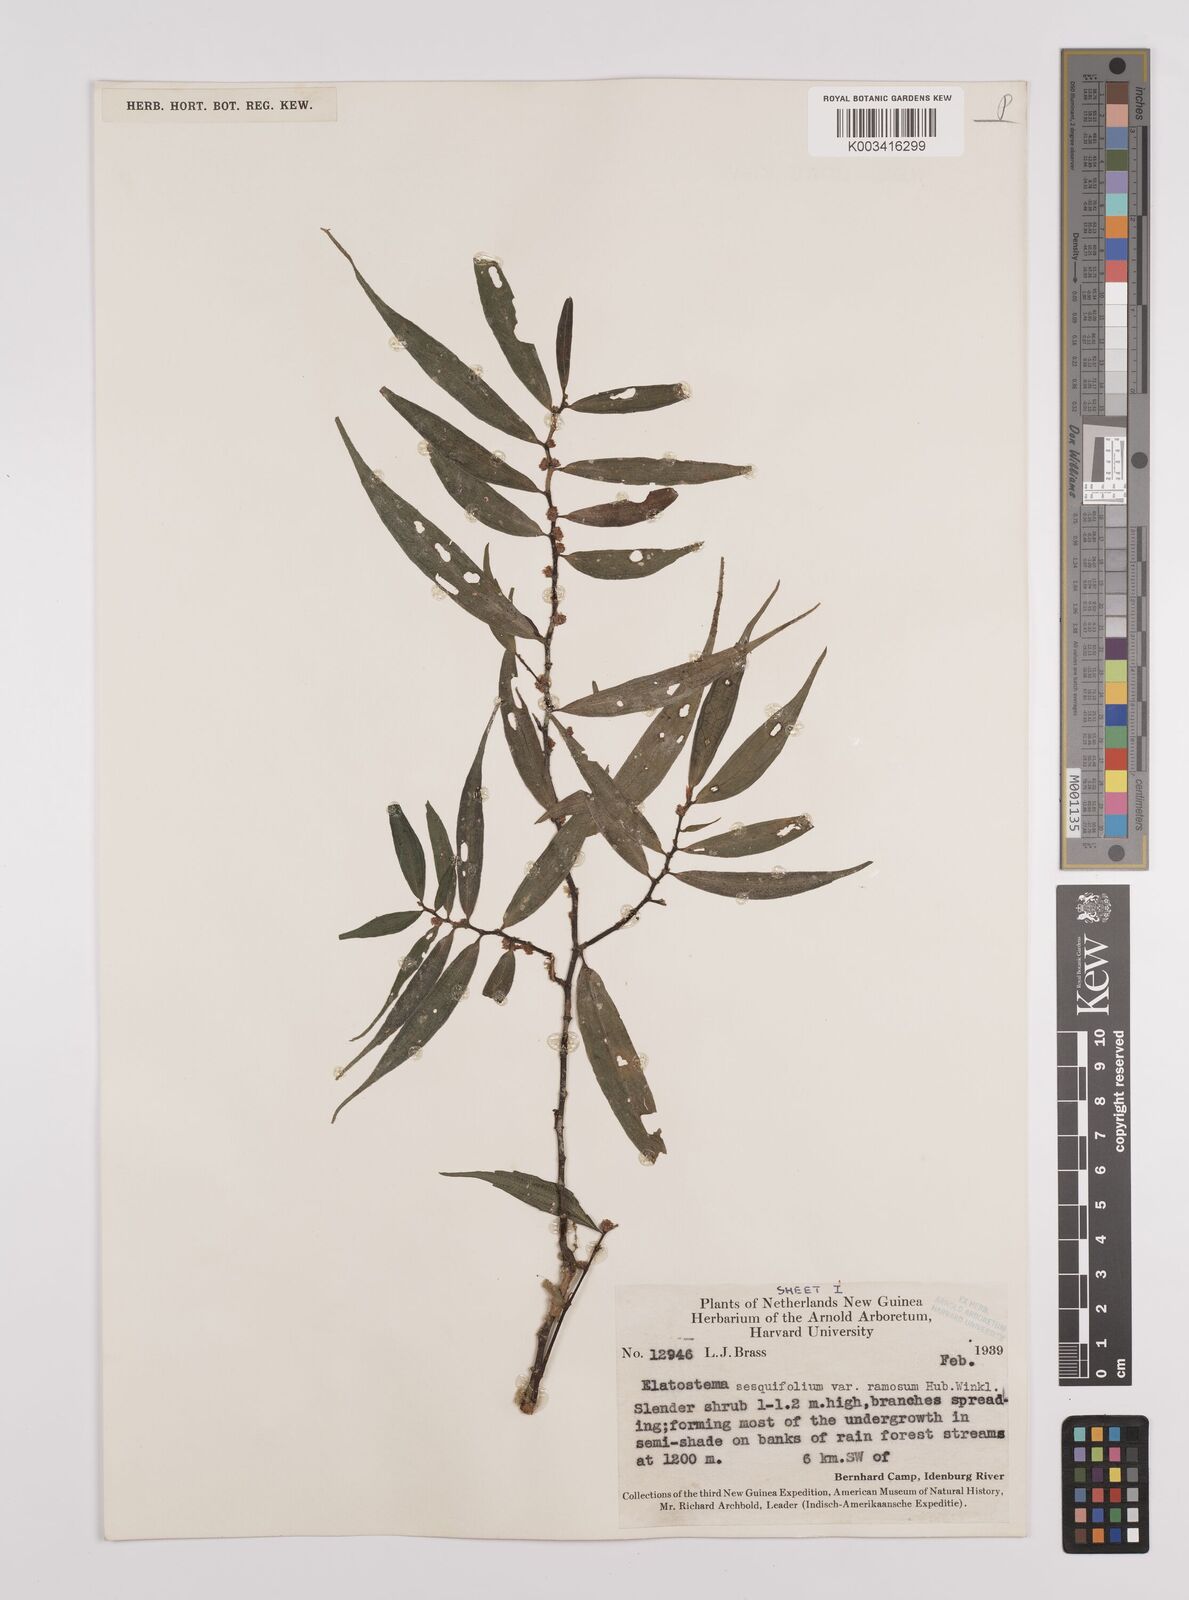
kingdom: Plantae
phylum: Tracheophyta
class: Magnoliopsida
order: Rosales
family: Urticaceae
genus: Elatostema
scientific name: Elatostema integrifolium
